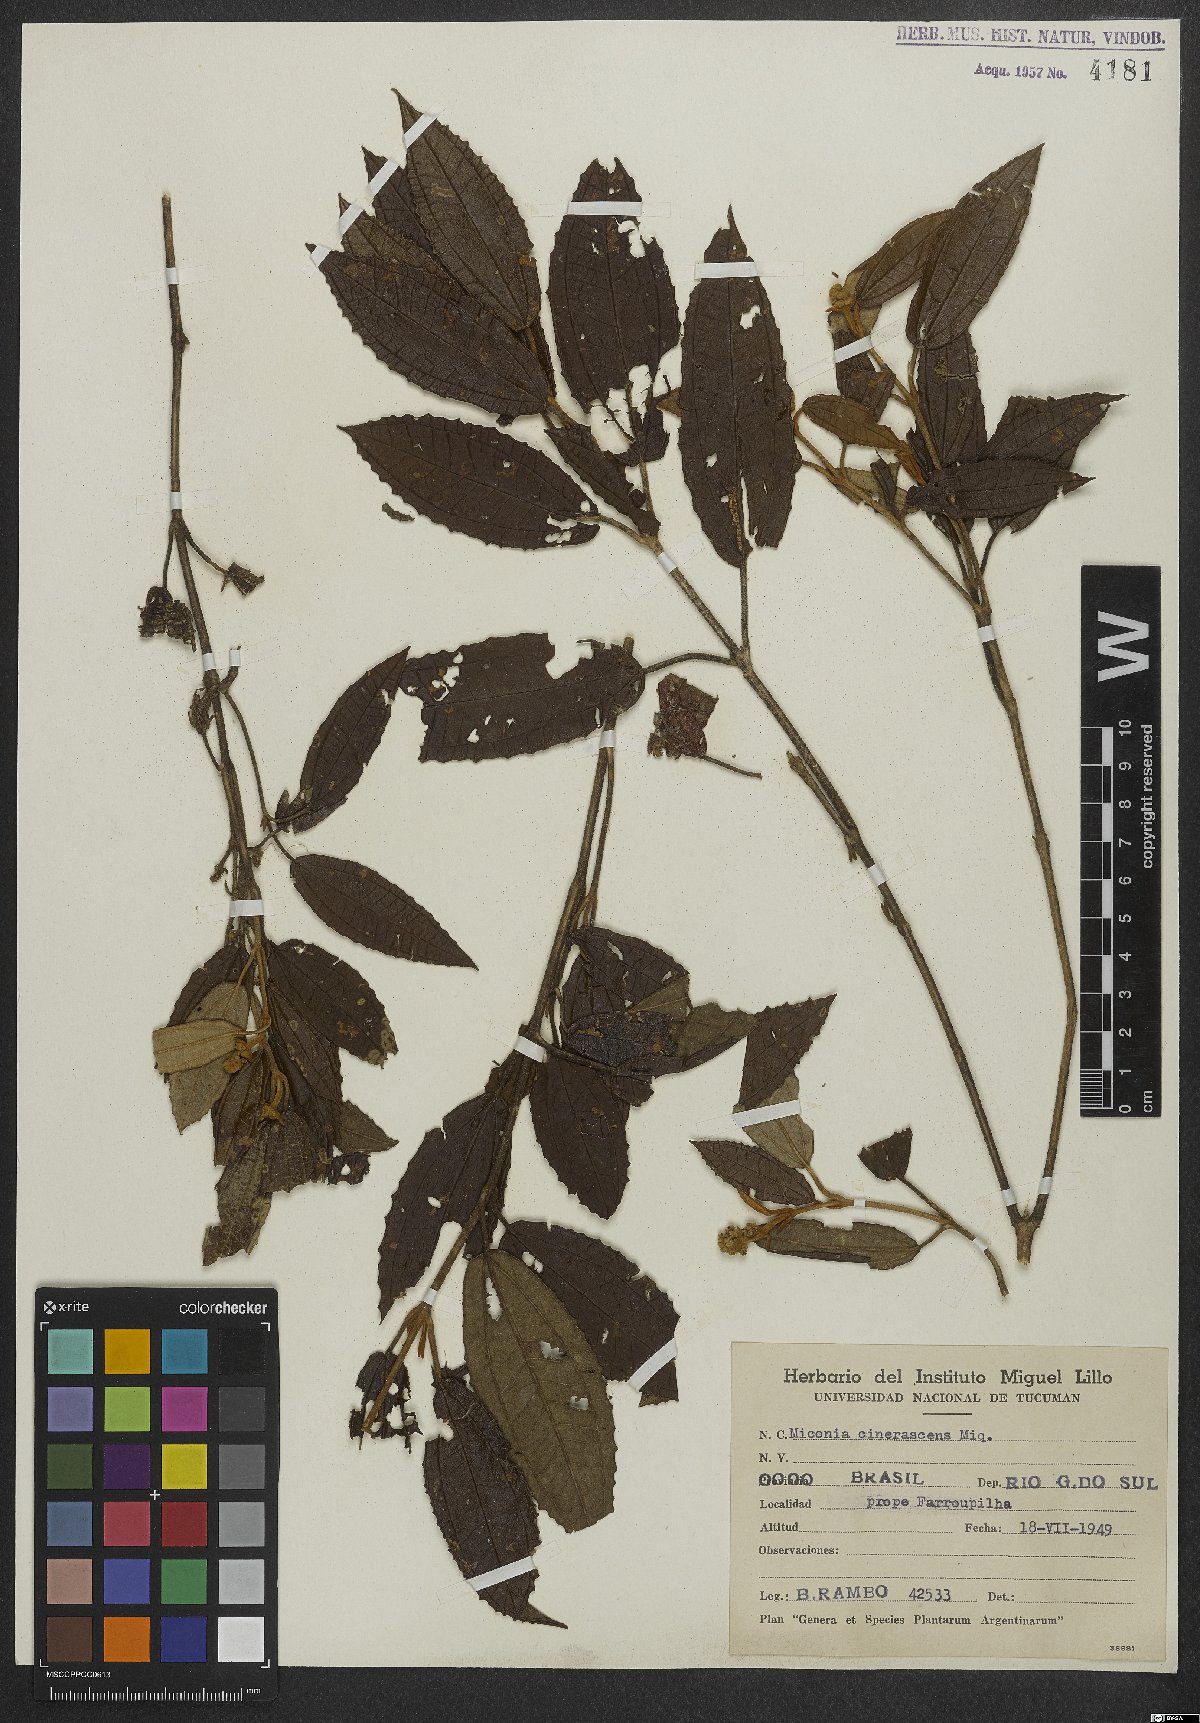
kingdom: Plantae
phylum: Tracheophyta
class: Magnoliopsida
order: Myrtales
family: Melastomataceae
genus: Miconia
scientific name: Miconia cinerascens
